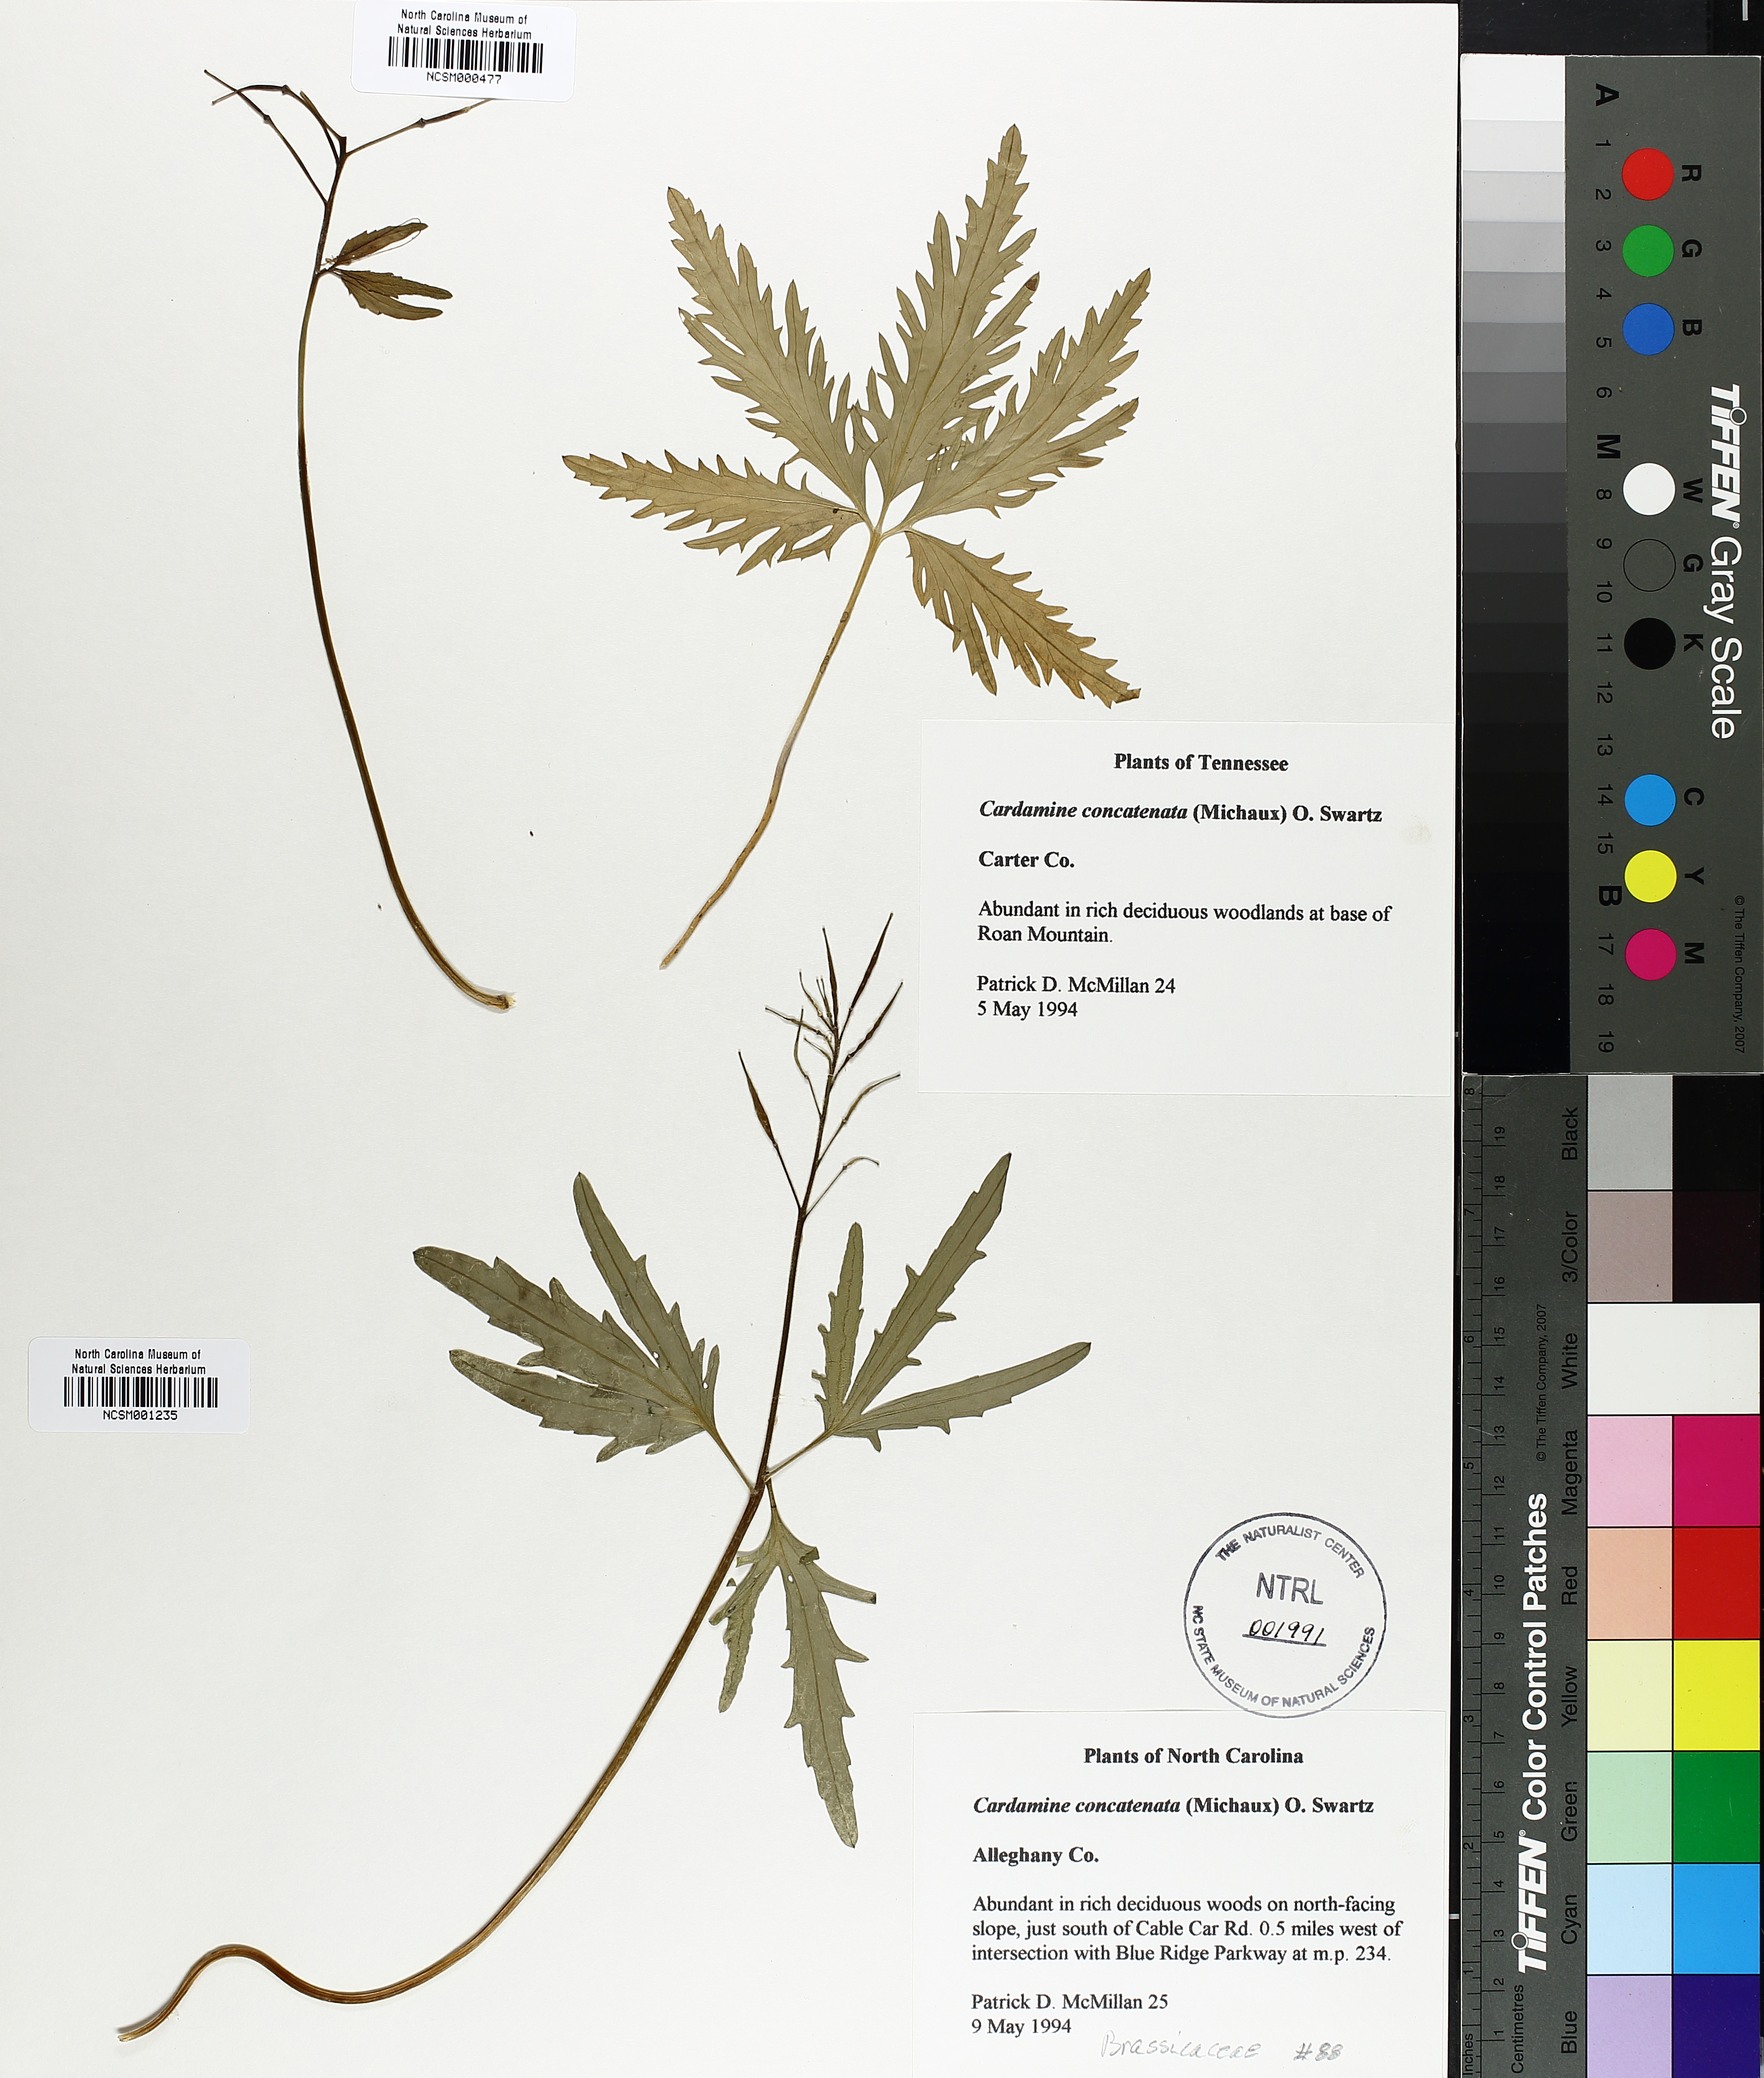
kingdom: Plantae
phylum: Tracheophyta
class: Magnoliopsida
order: Brassicales
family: Brassicaceae
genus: Cardamine
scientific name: Cardamine concatenata
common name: Cut-leaf toothcup
